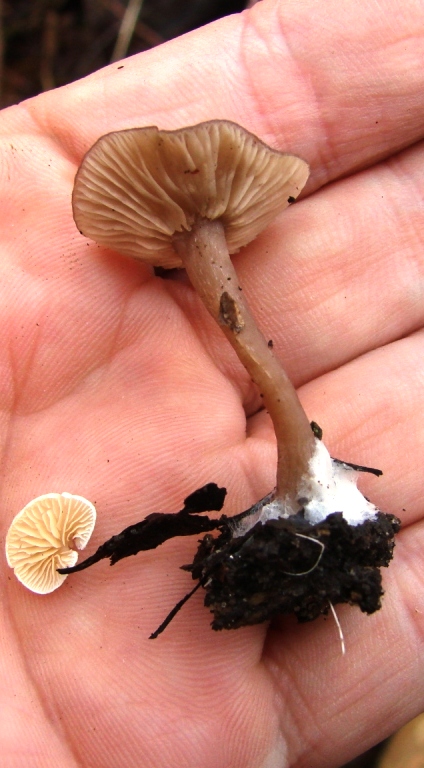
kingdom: Fungi
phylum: Basidiomycota
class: Agaricomycetes
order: Agaricales
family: Pseudoclitocybaceae
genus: Pseudoclitocybe
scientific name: Pseudoclitocybe cyathiformis
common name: almindelig bægertragthat
